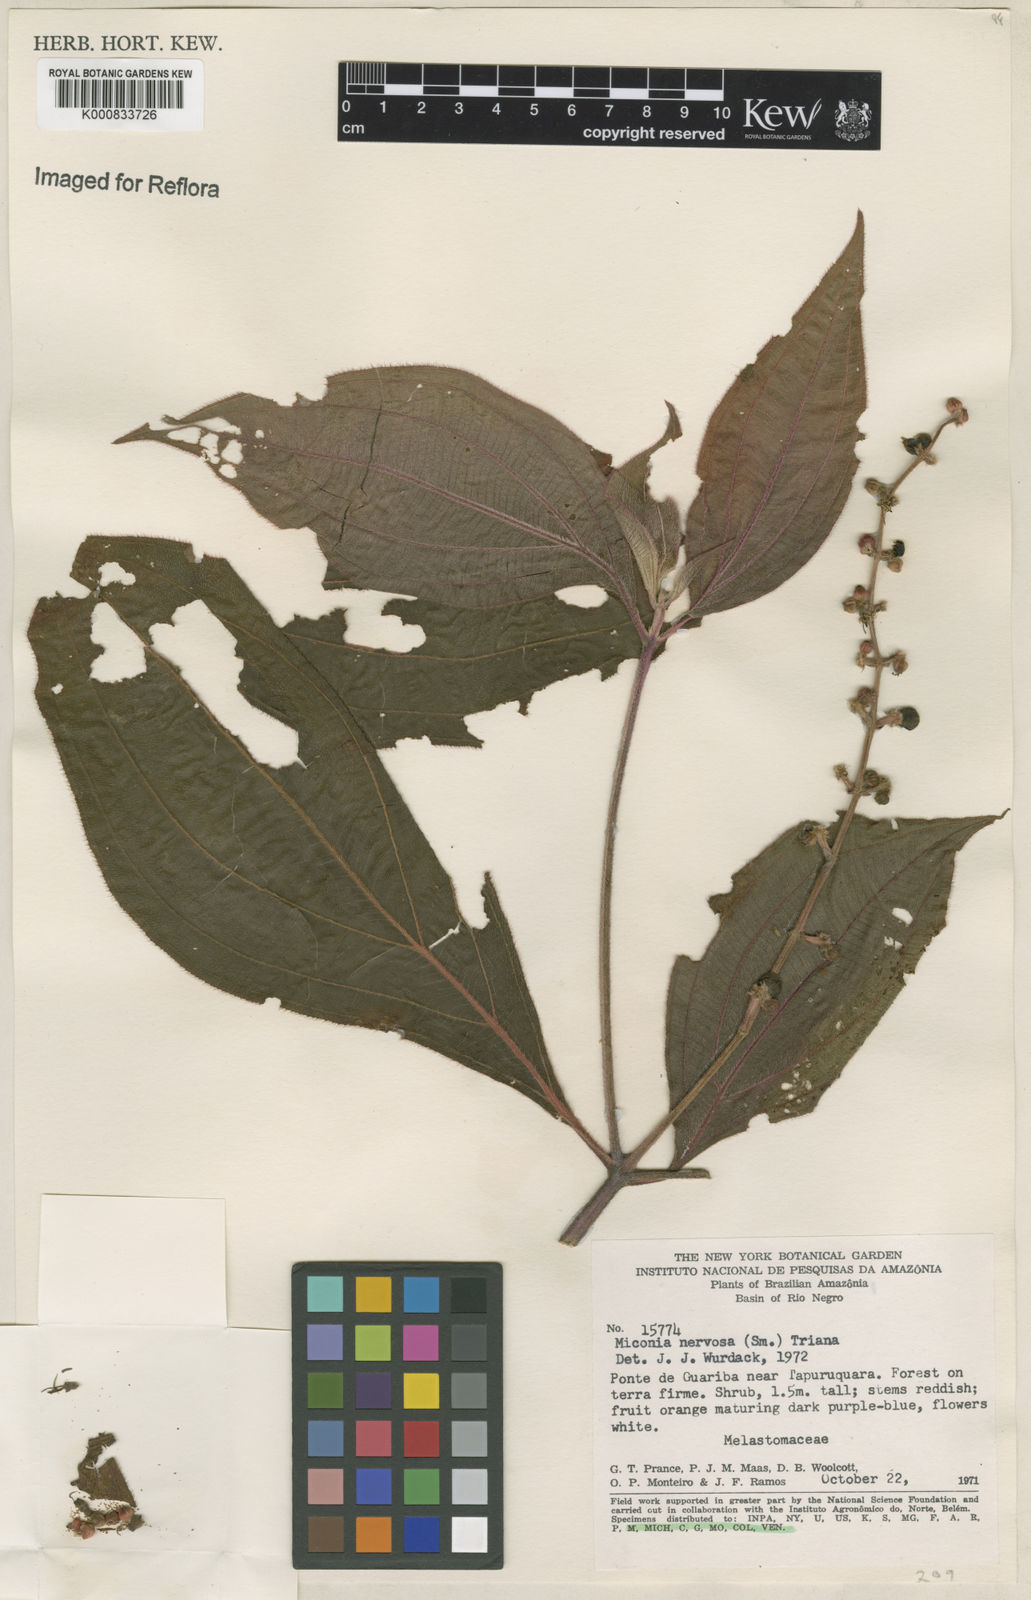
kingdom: Plantae
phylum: Tracheophyta
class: Magnoliopsida
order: Myrtales
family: Melastomataceae
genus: Miconia
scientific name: Miconia nervosa
